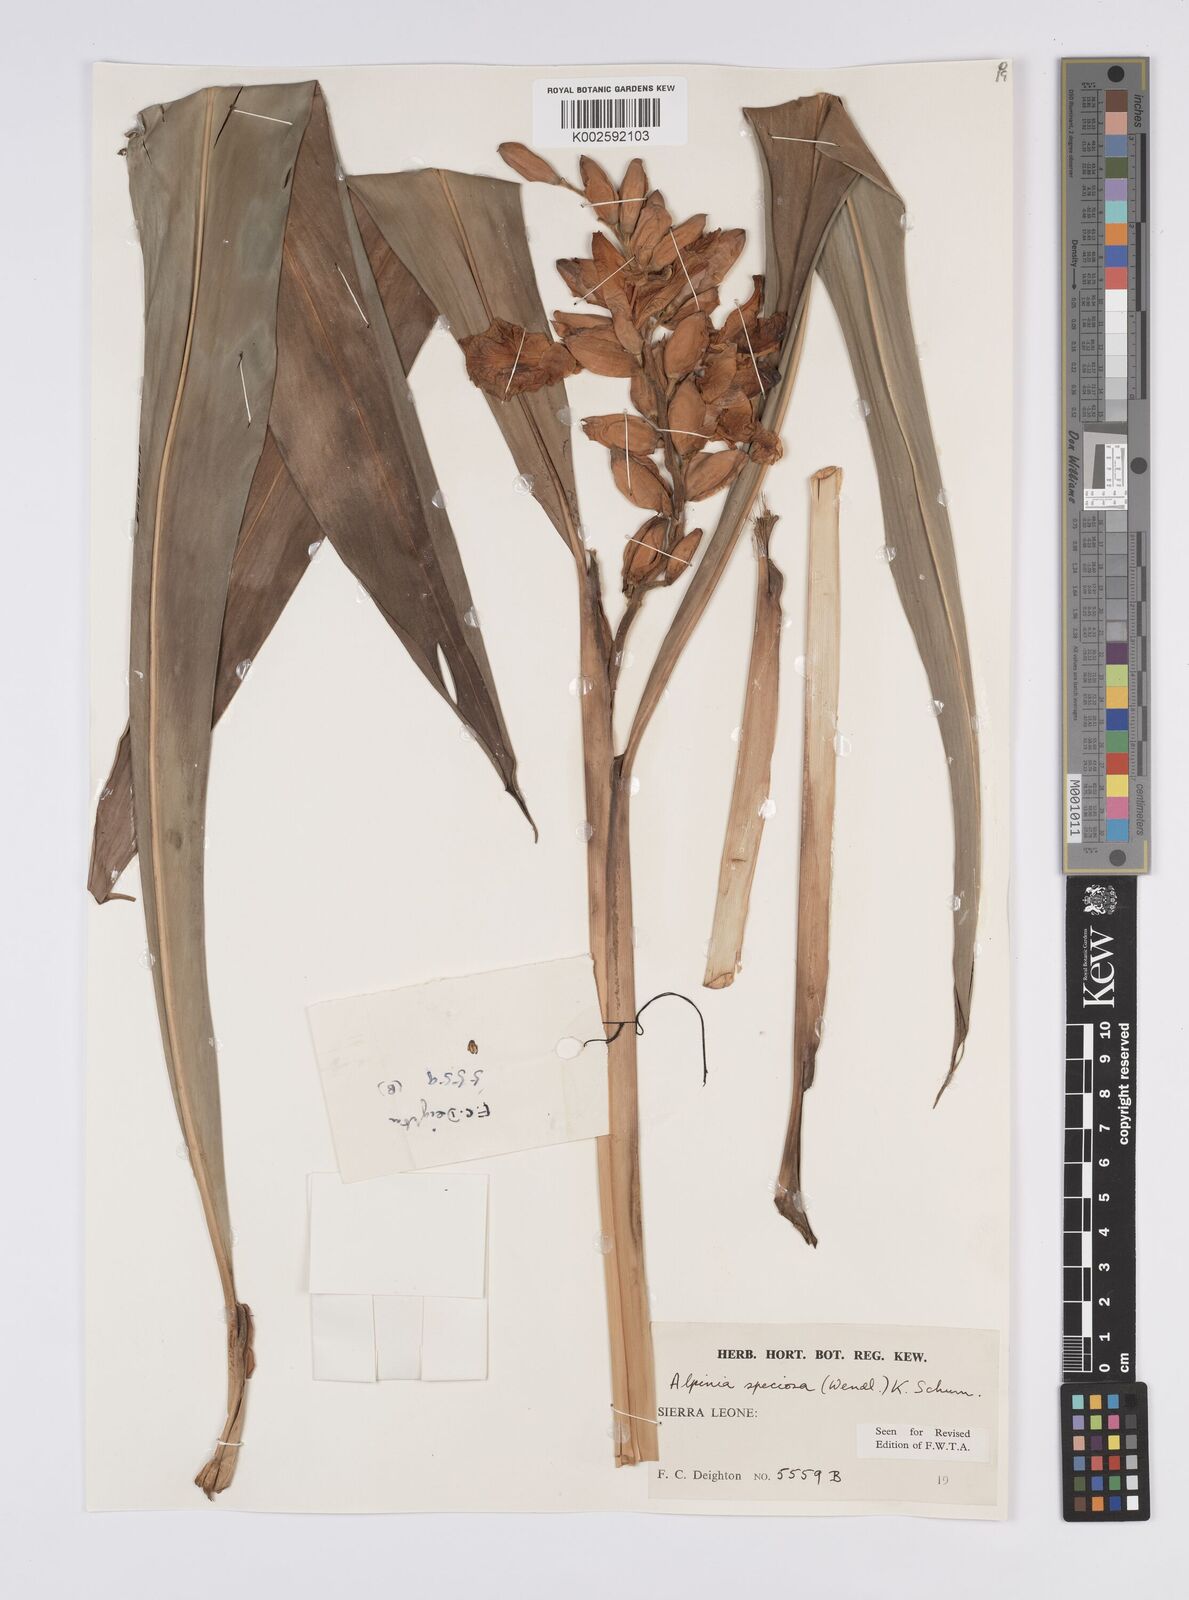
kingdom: Plantae
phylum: Tracheophyta
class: Liliopsida
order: Zingiberales
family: Zingiberaceae
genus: Alpinia
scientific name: Alpinia
